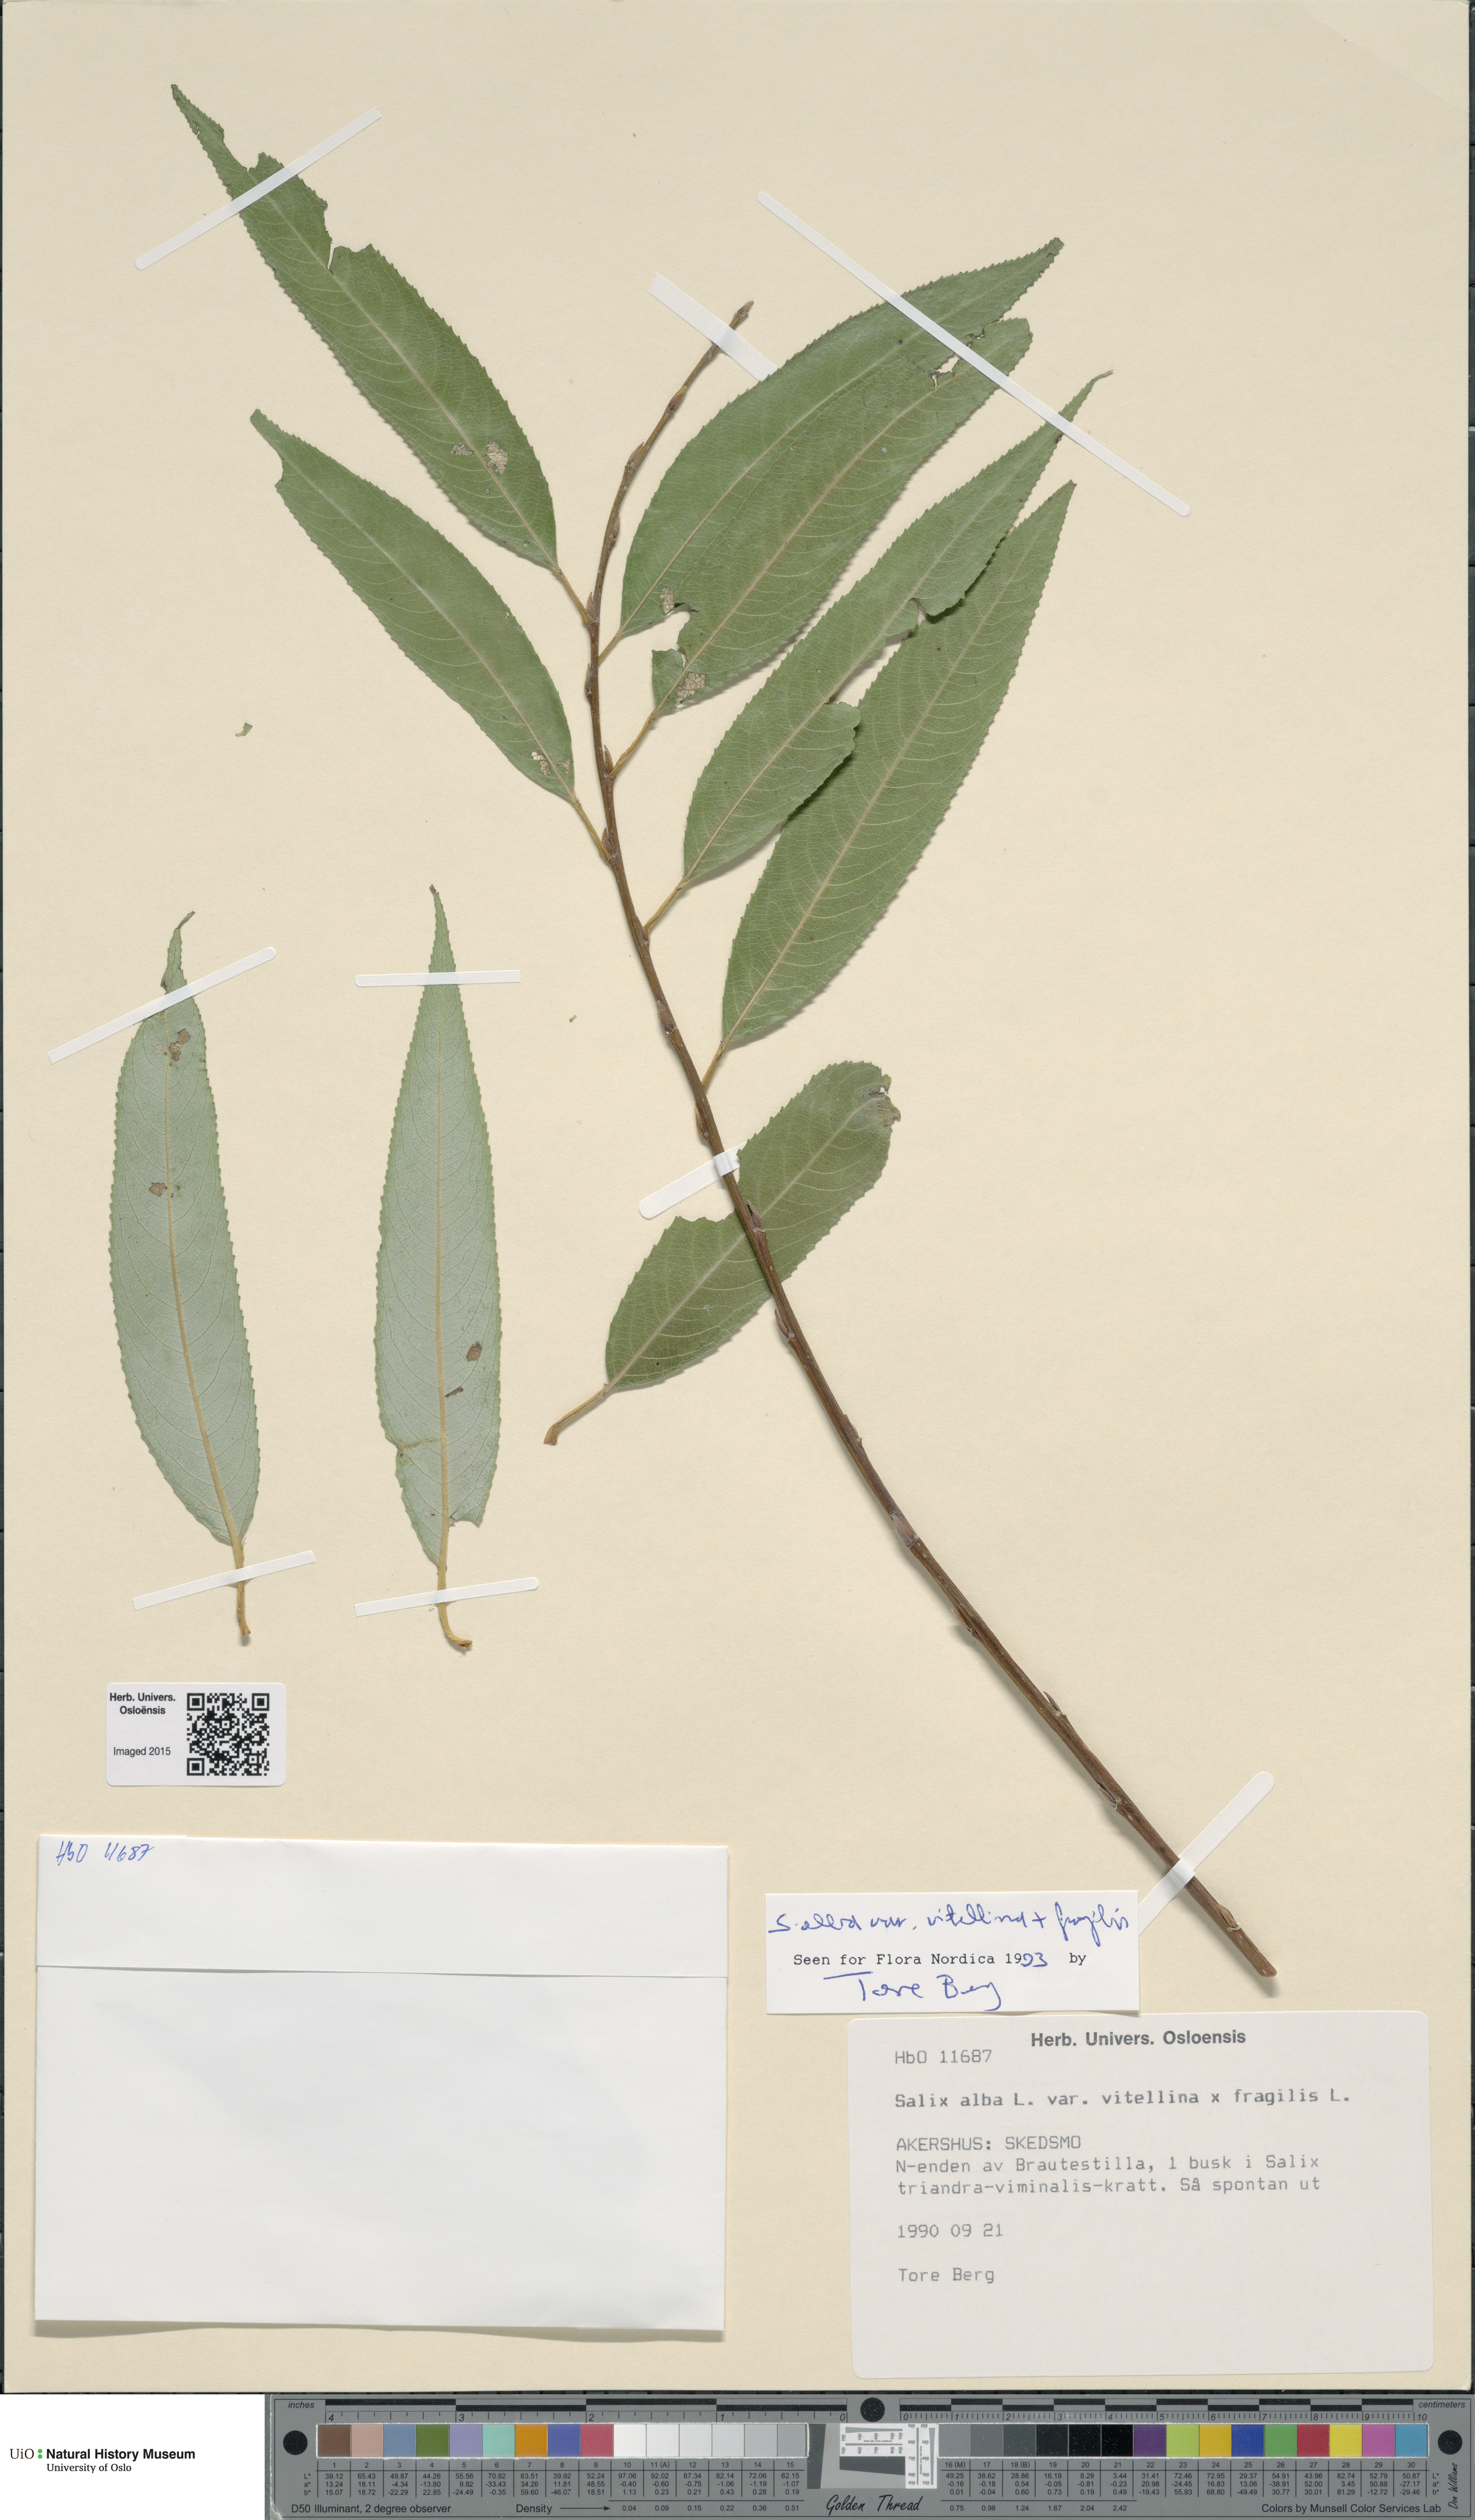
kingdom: Plantae
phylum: Tracheophyta
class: Magnoliopsida
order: Malpighiales
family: Salicaceae
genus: Salix
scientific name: Salix
